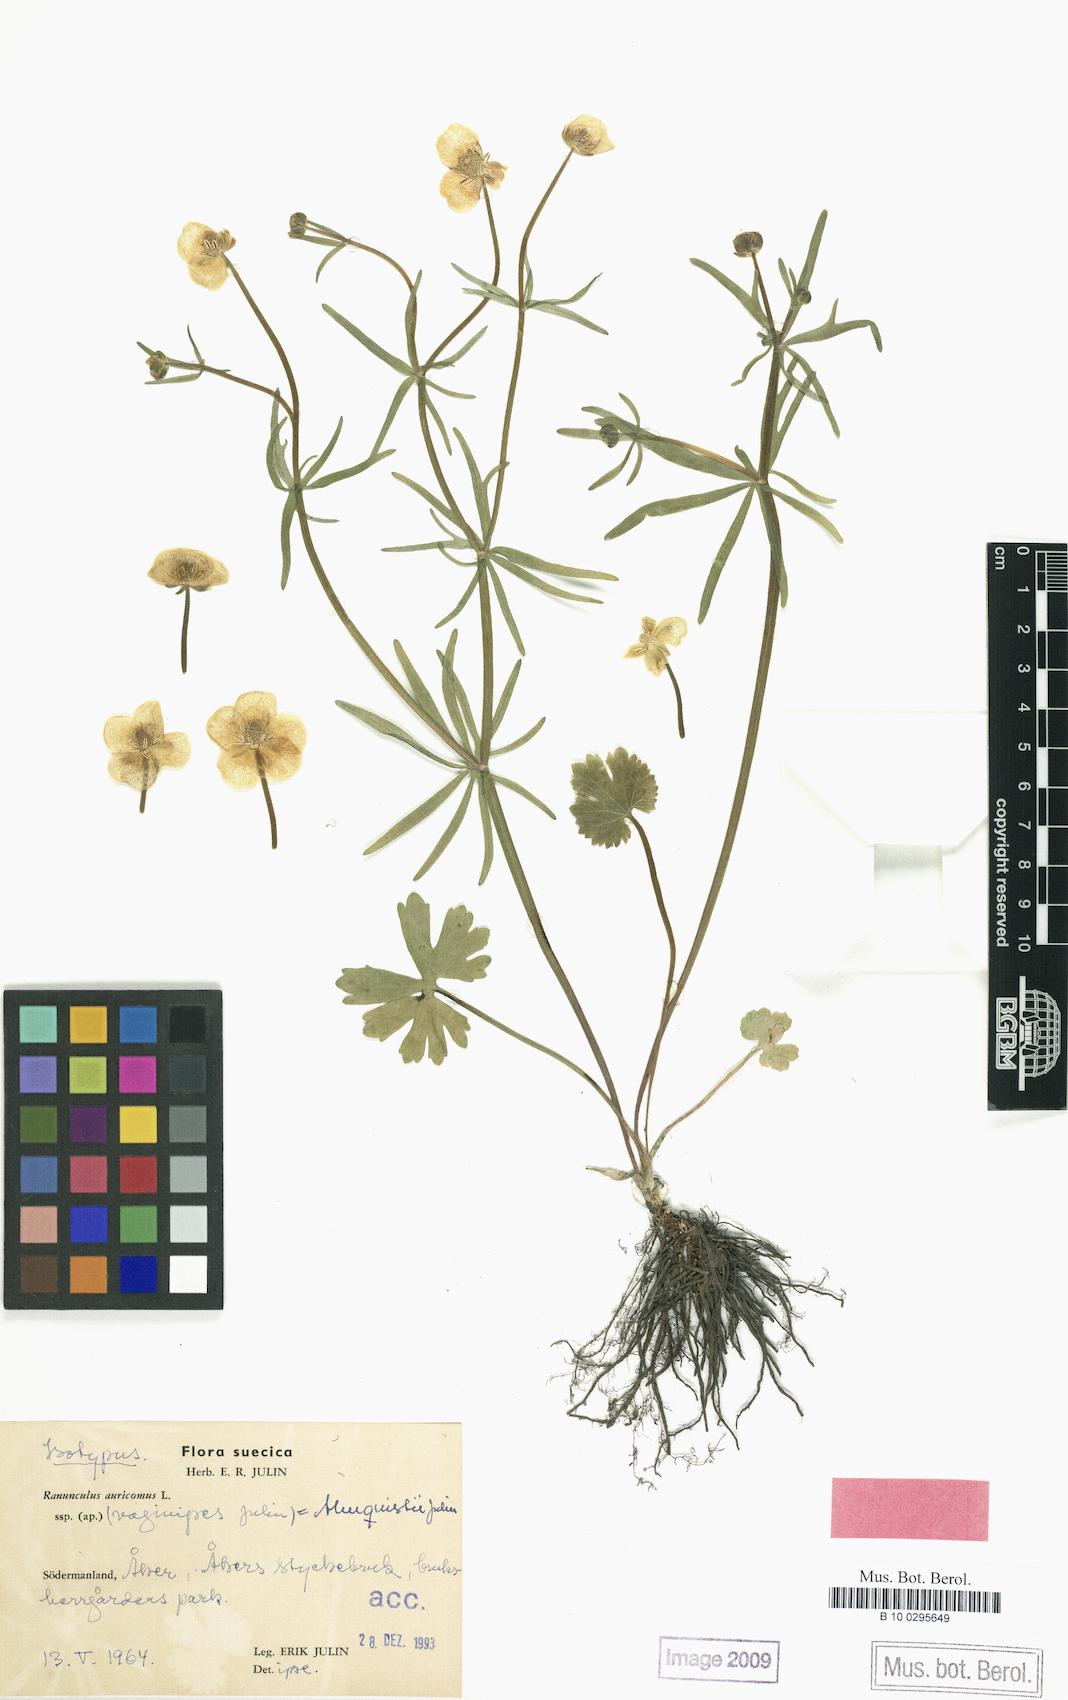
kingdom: Plantae
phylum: Tracheophyta
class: Magnoliopsida
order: Ranunculales
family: Ranunculaceae
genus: Ranunculus
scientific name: Ranunculus almquistii
